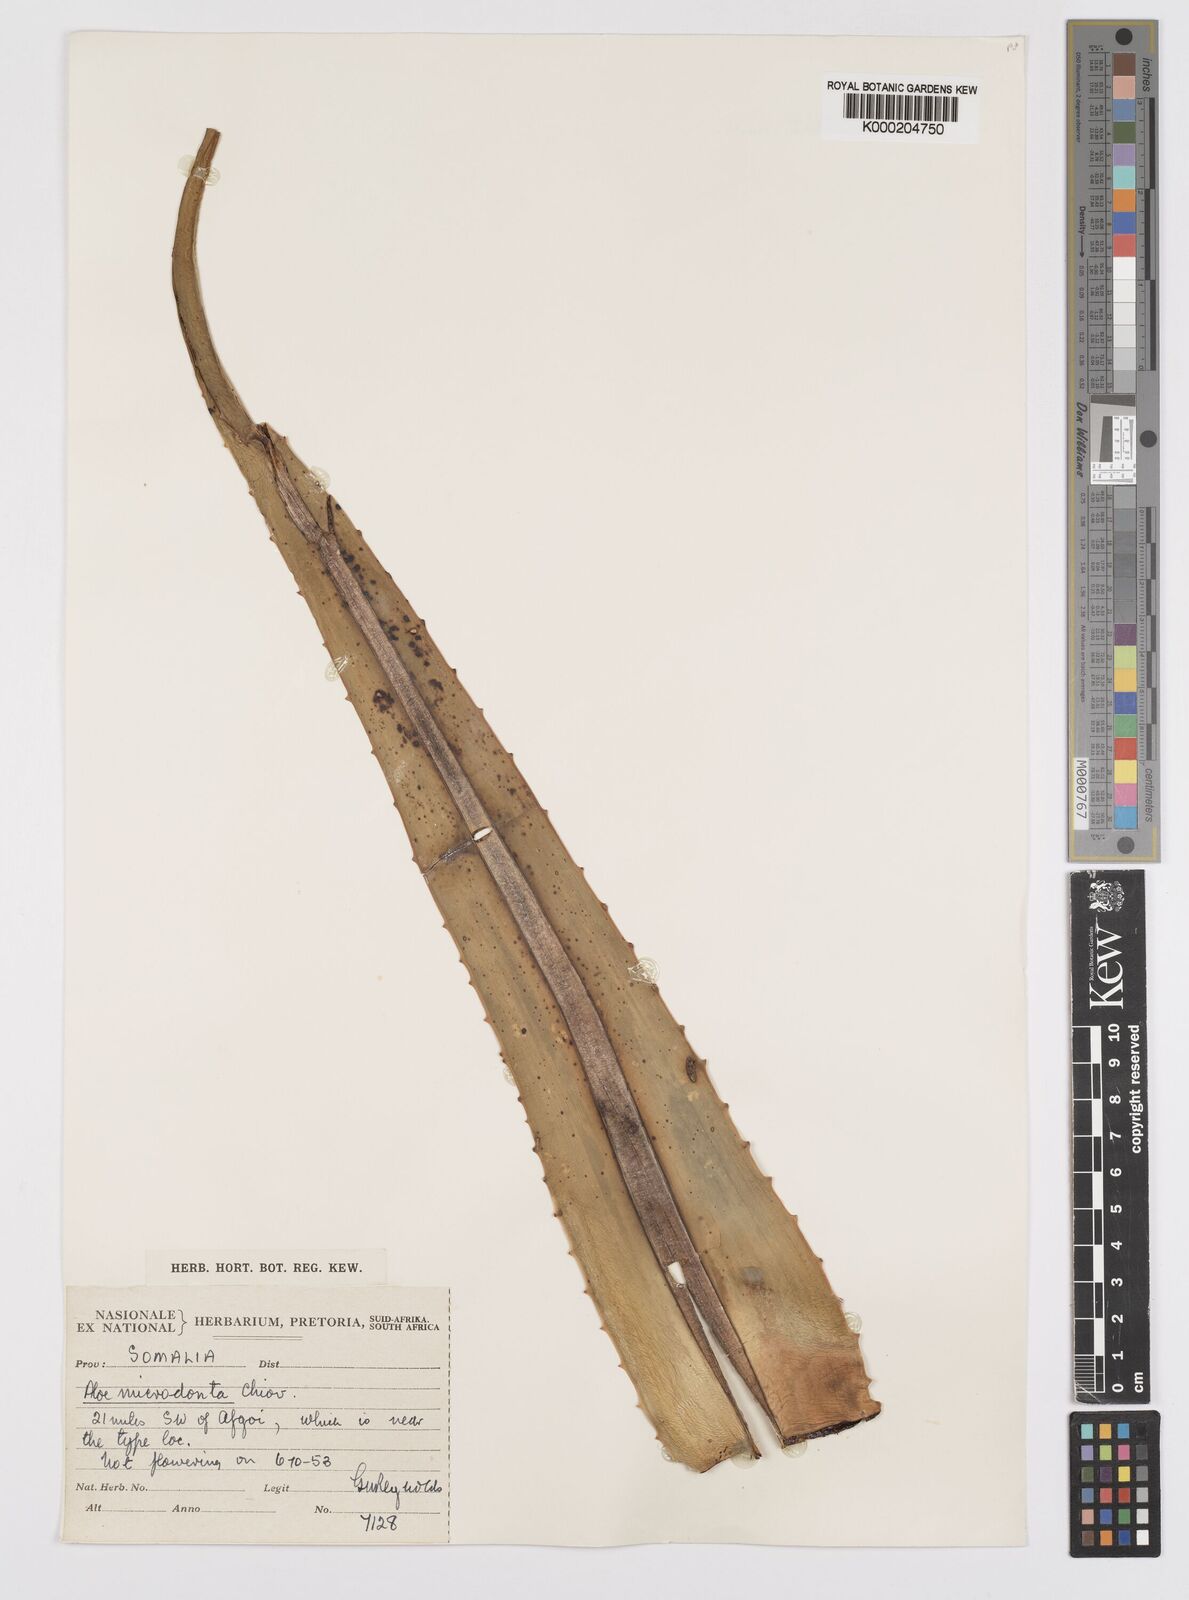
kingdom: Plantae
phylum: Tracheophyta
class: Liliopsida
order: Asparagales
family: Asphodelaceae
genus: Aloe
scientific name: Aloe microdonta
